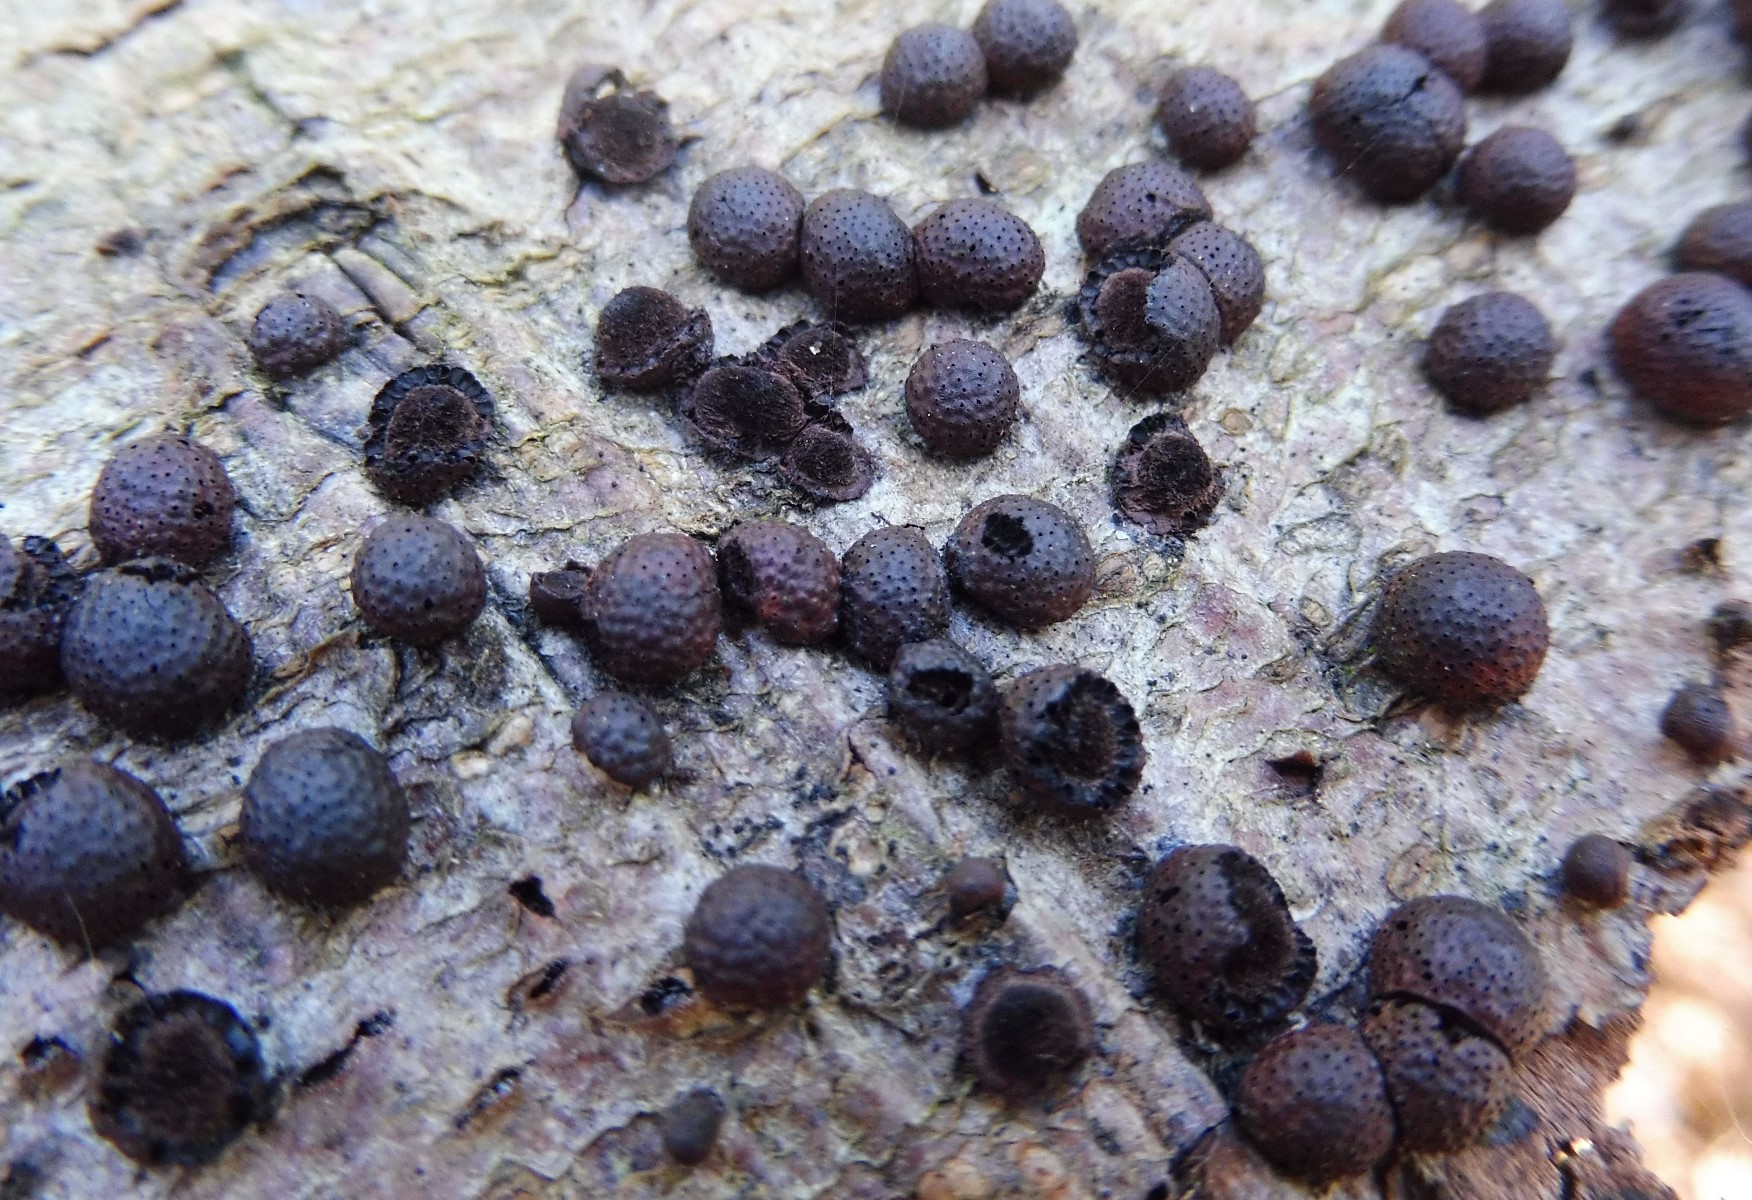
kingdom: Fungi
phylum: Ascomycota
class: Sordariomycetes
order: Xylariales
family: Hypoxylaceae
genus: Hypoxylon
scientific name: Hypoxylon fragiforme
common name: kuljordbær
